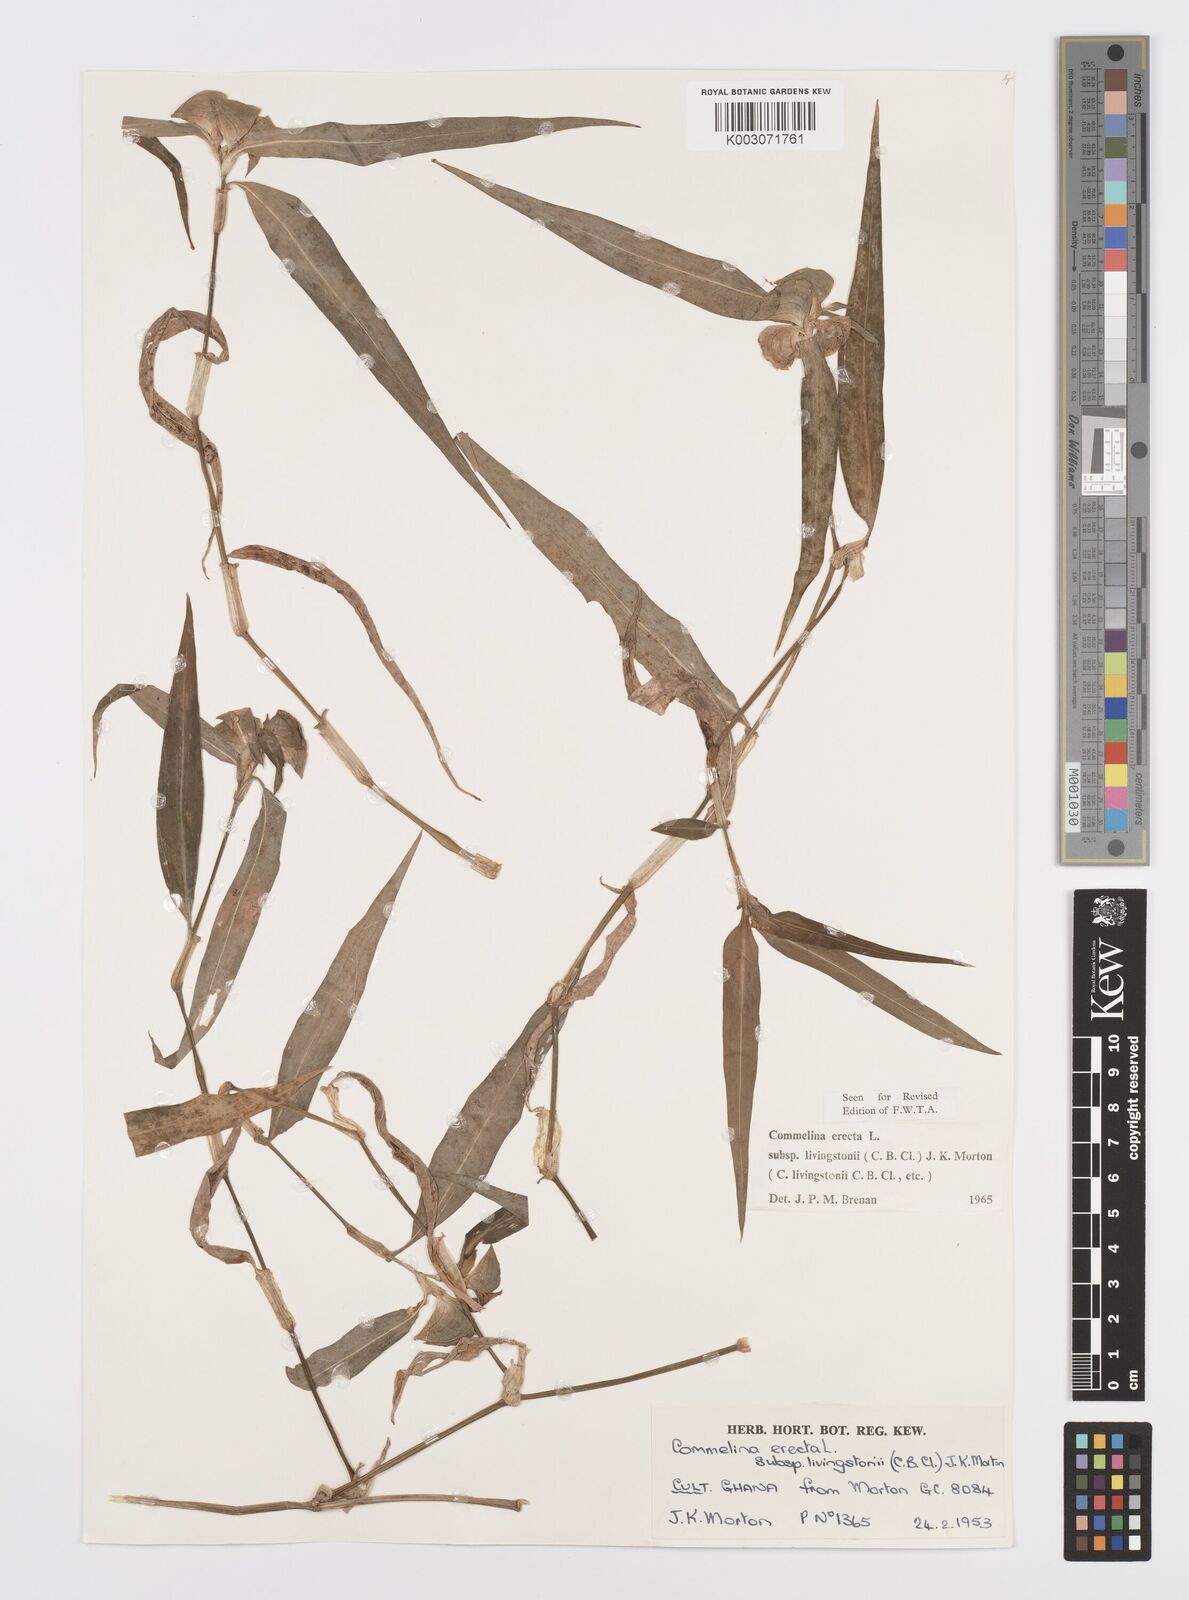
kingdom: Plantae
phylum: Tracheophyta
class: Liliopsida
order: Commelinales
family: Commelinaceae
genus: Commelina
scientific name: Commelina erecta
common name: Blousel blommetjie
